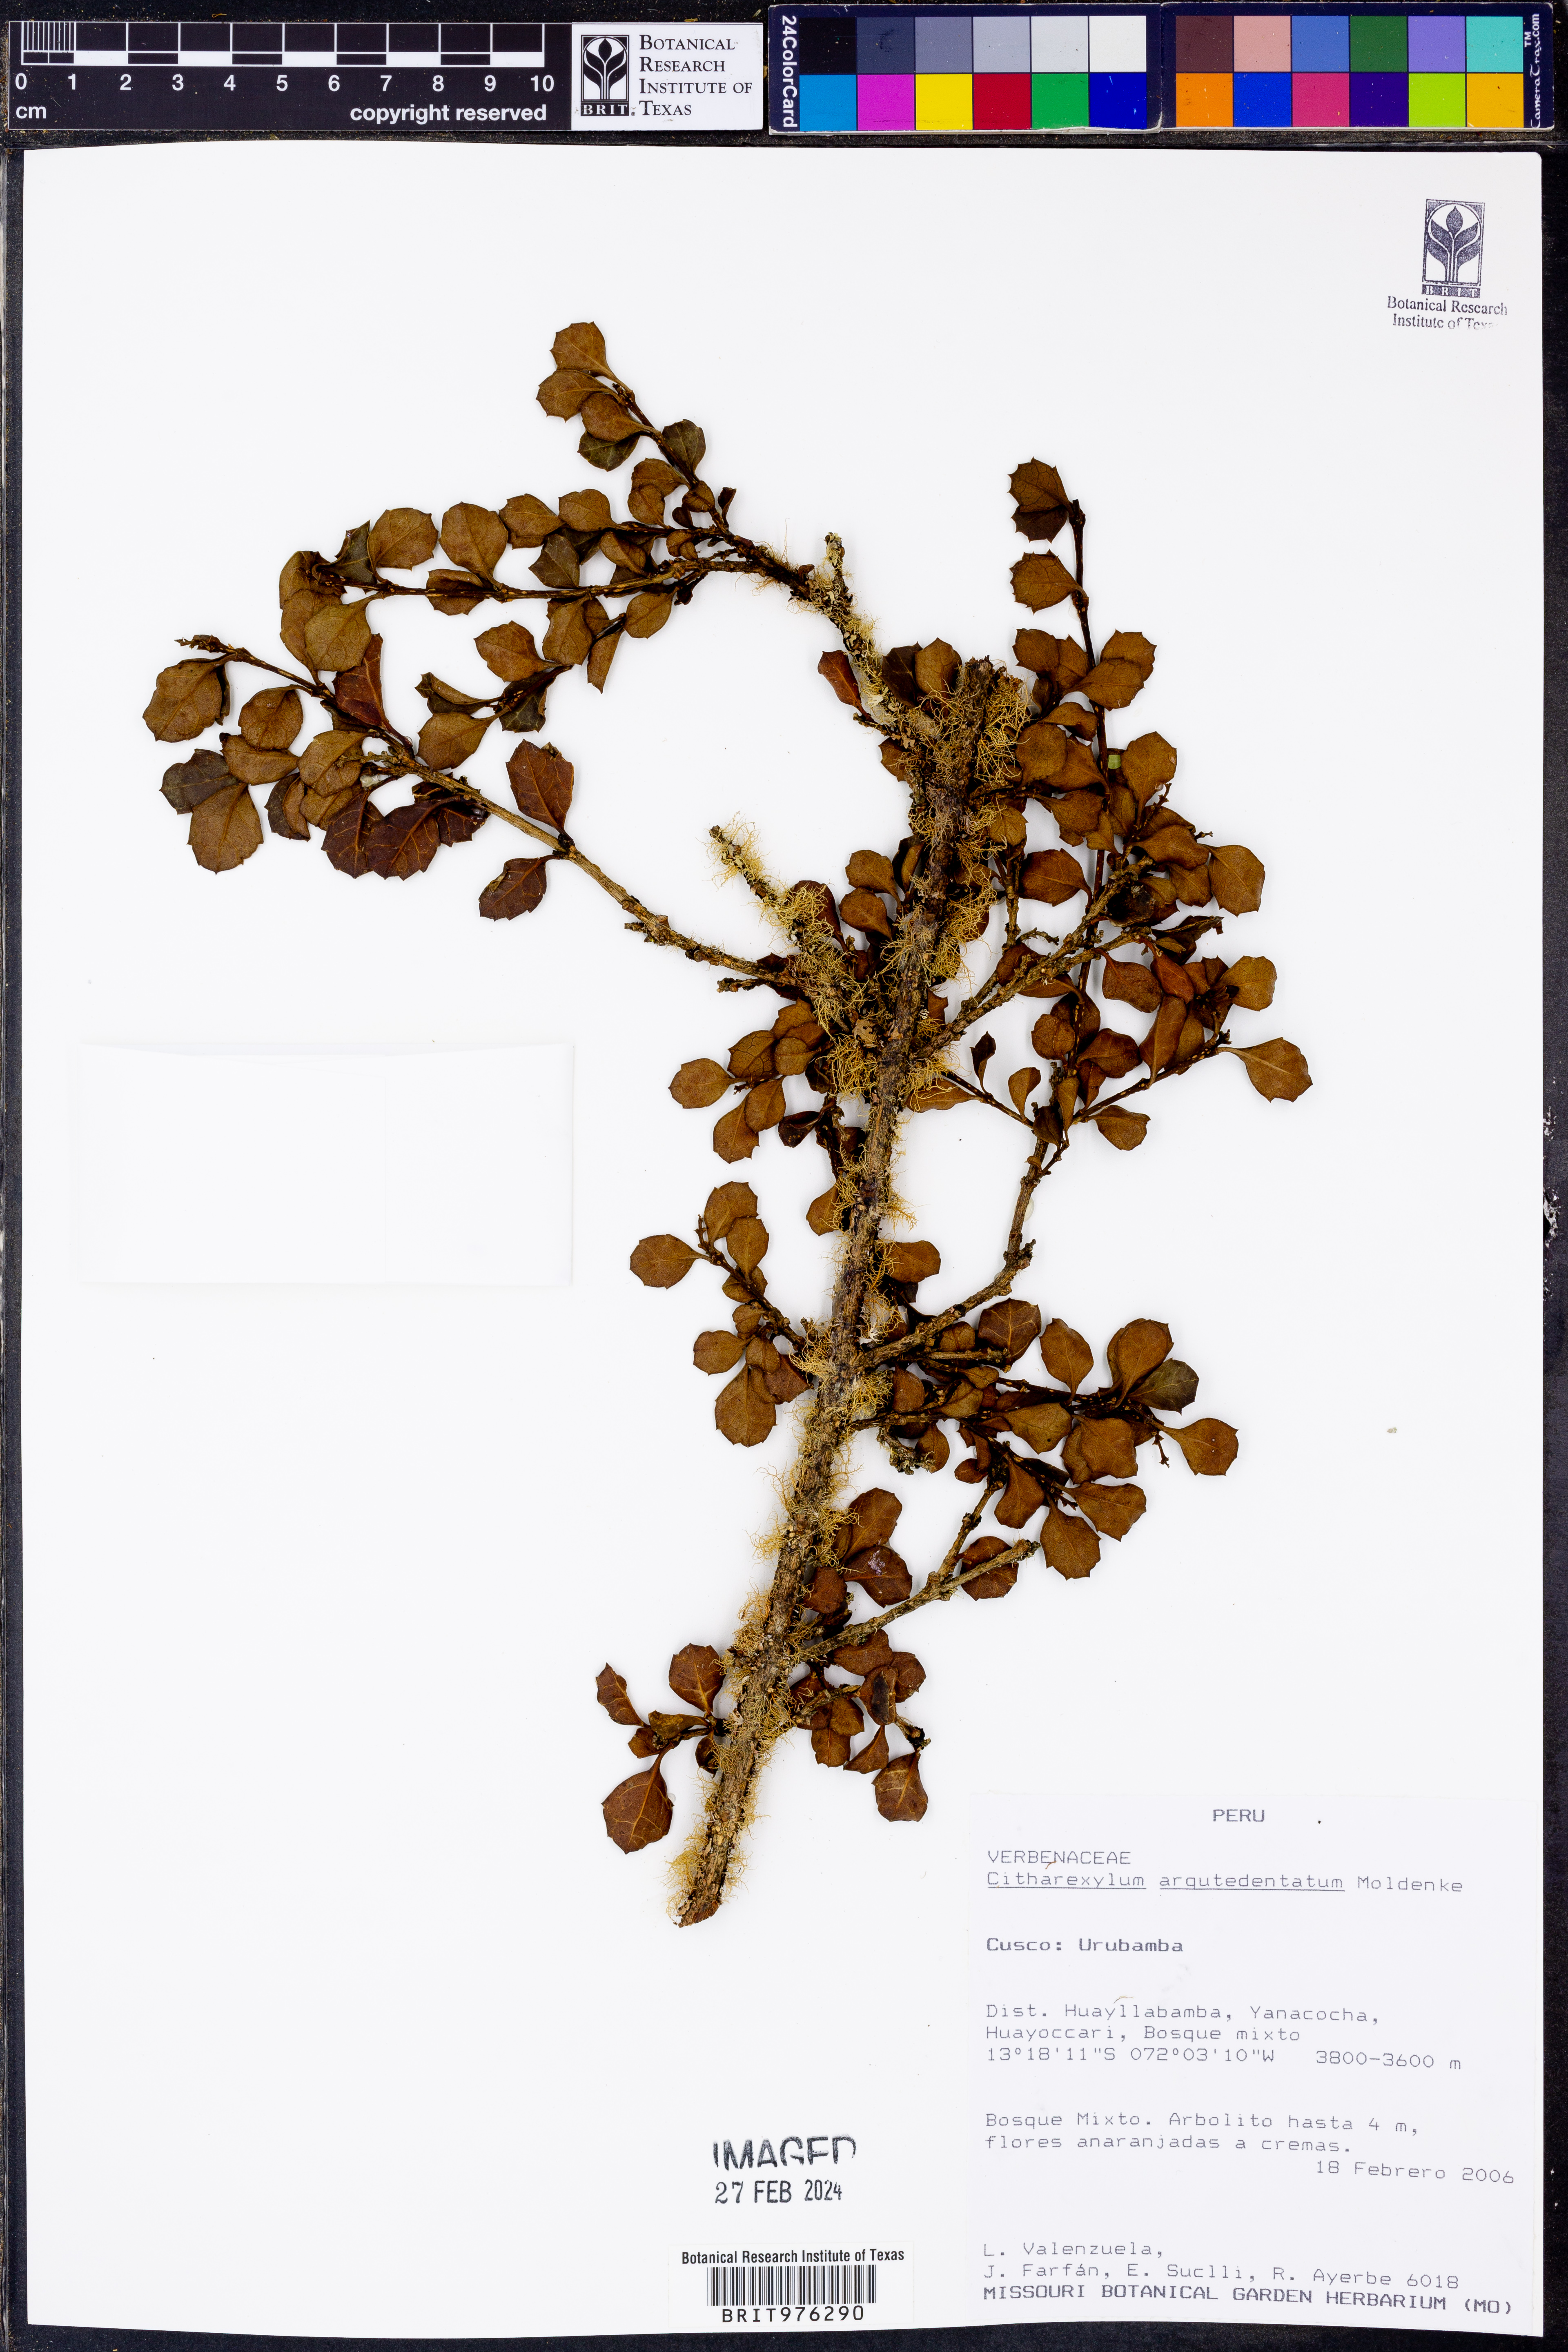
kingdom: Plantae
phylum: Tracheophyta
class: Magnoliopsida
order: Lamiales
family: Verbenaceae
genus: Citharexylum
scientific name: Citharexylum
